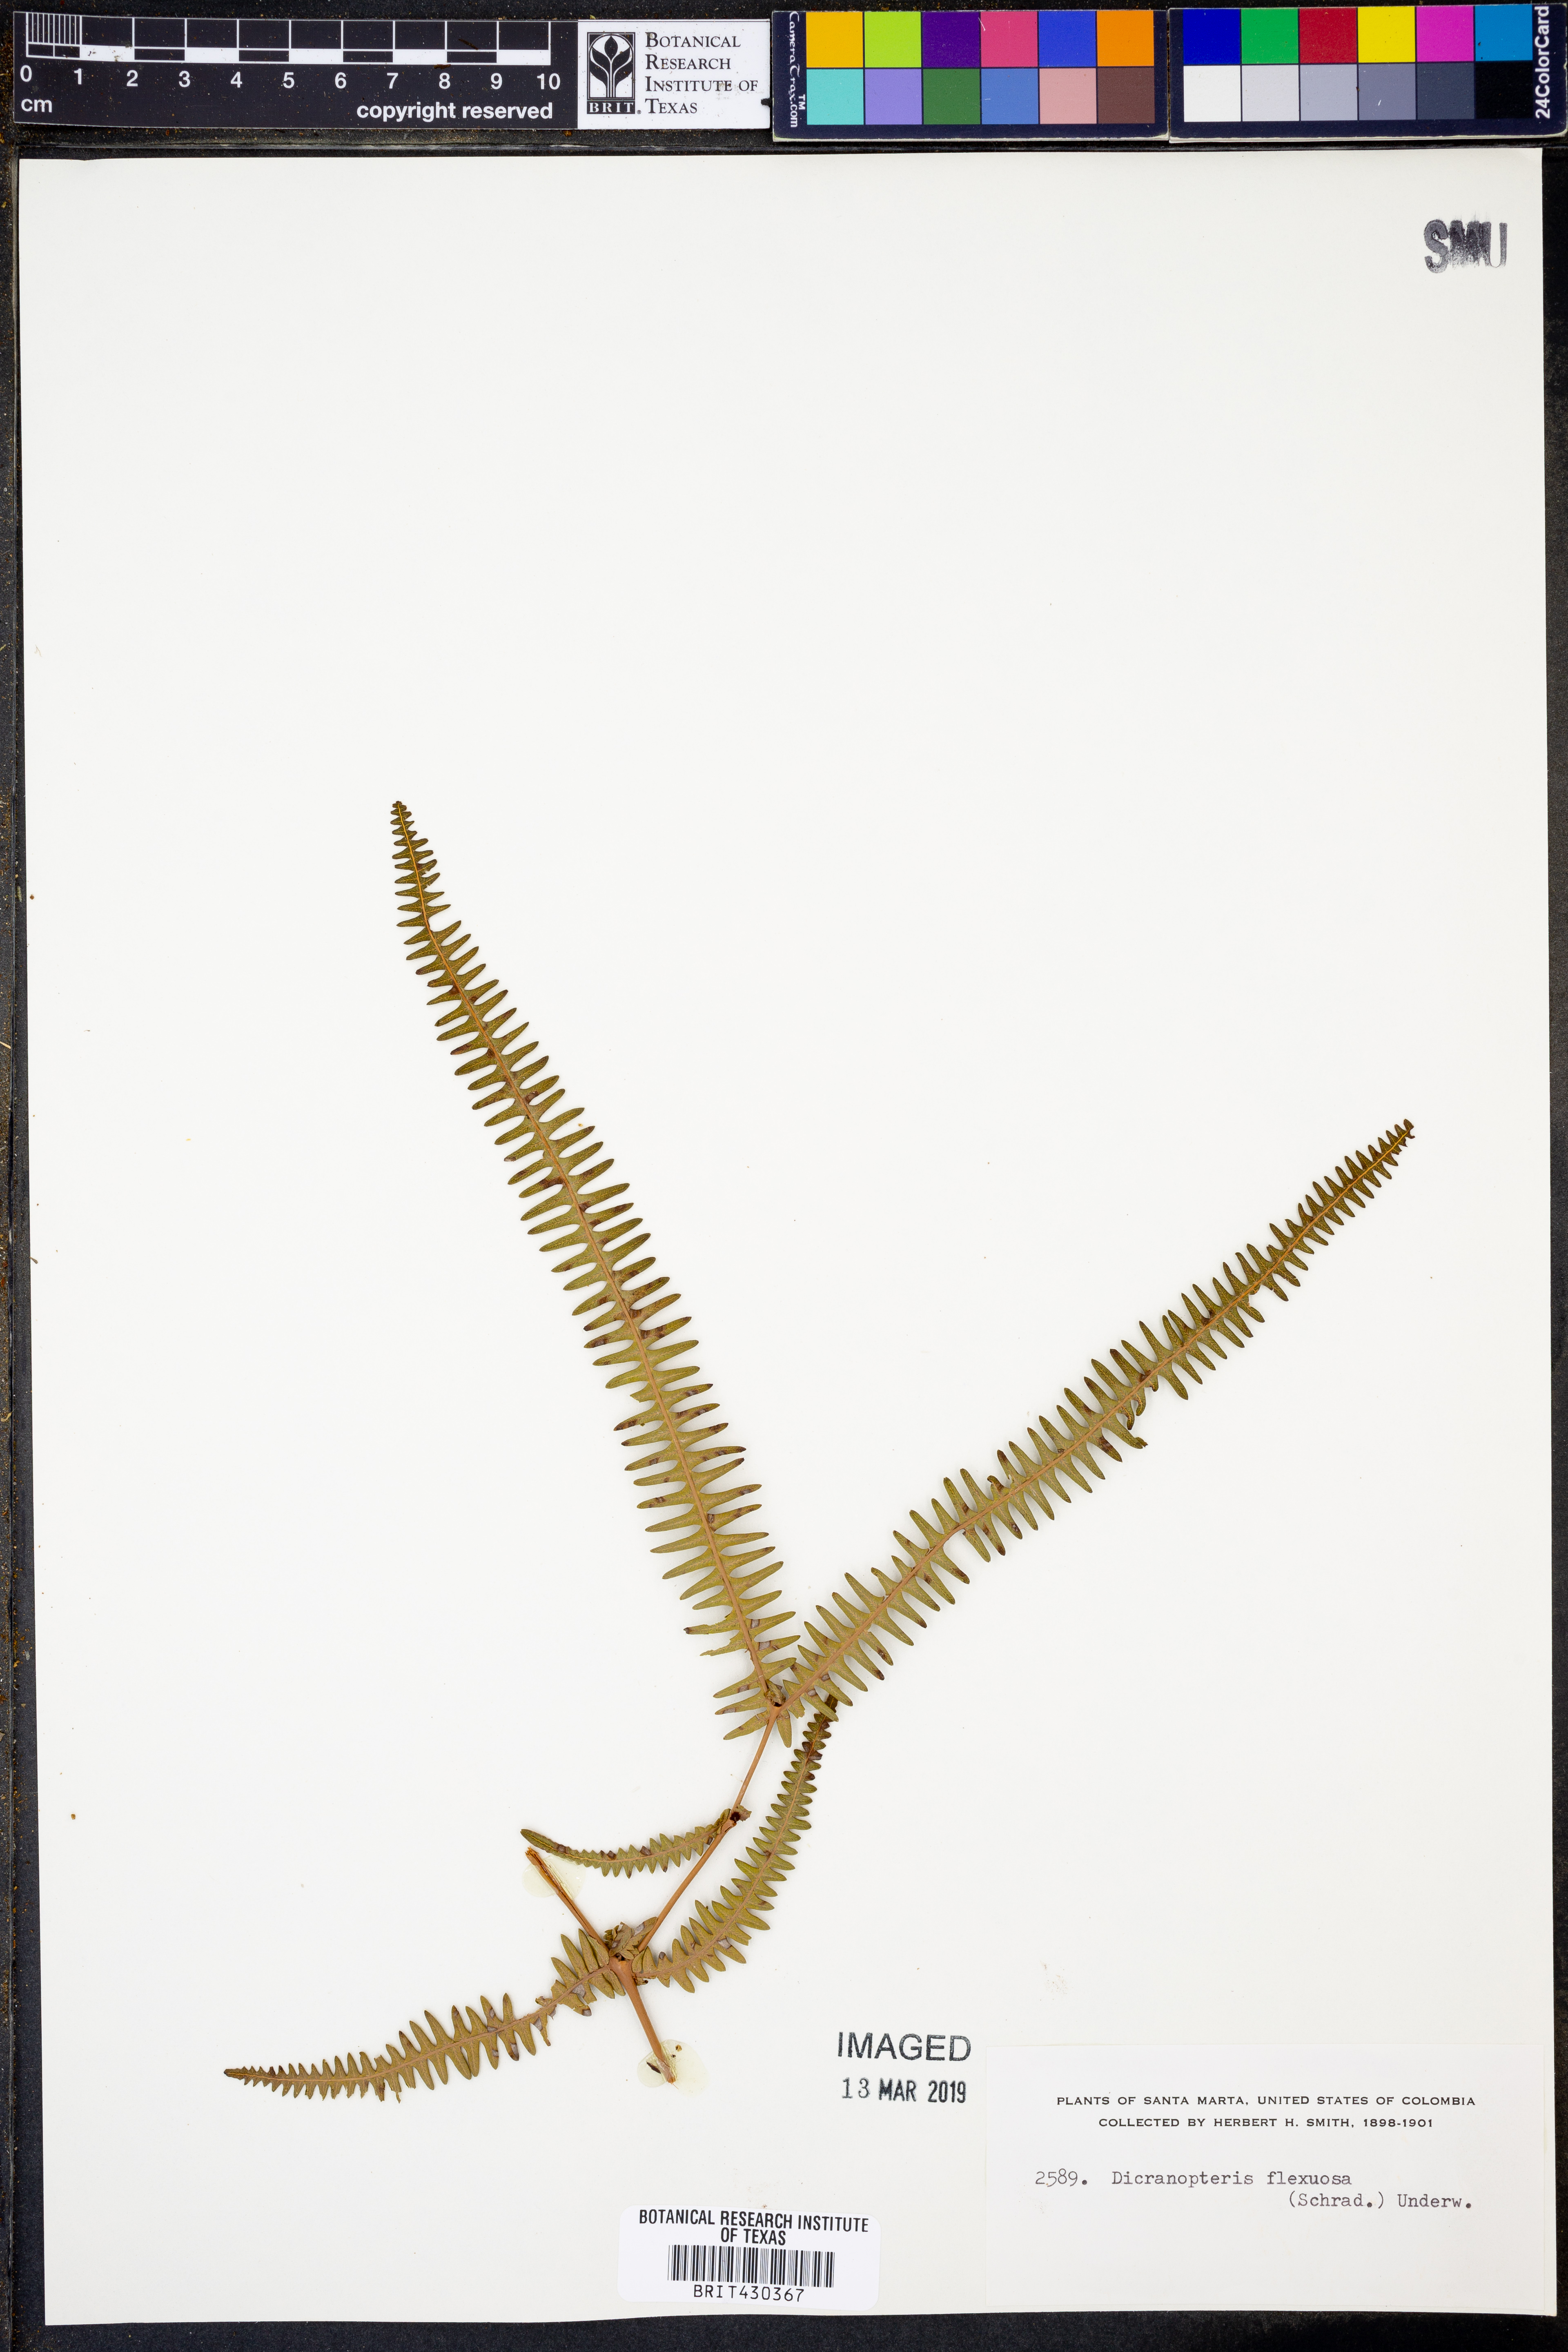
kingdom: Plantae
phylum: Tracheophyta
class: Polypodiopsida
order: Gleicheniales
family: Gleicheniaceae
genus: Dicranopteris
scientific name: Dicranopteris flexuosa
